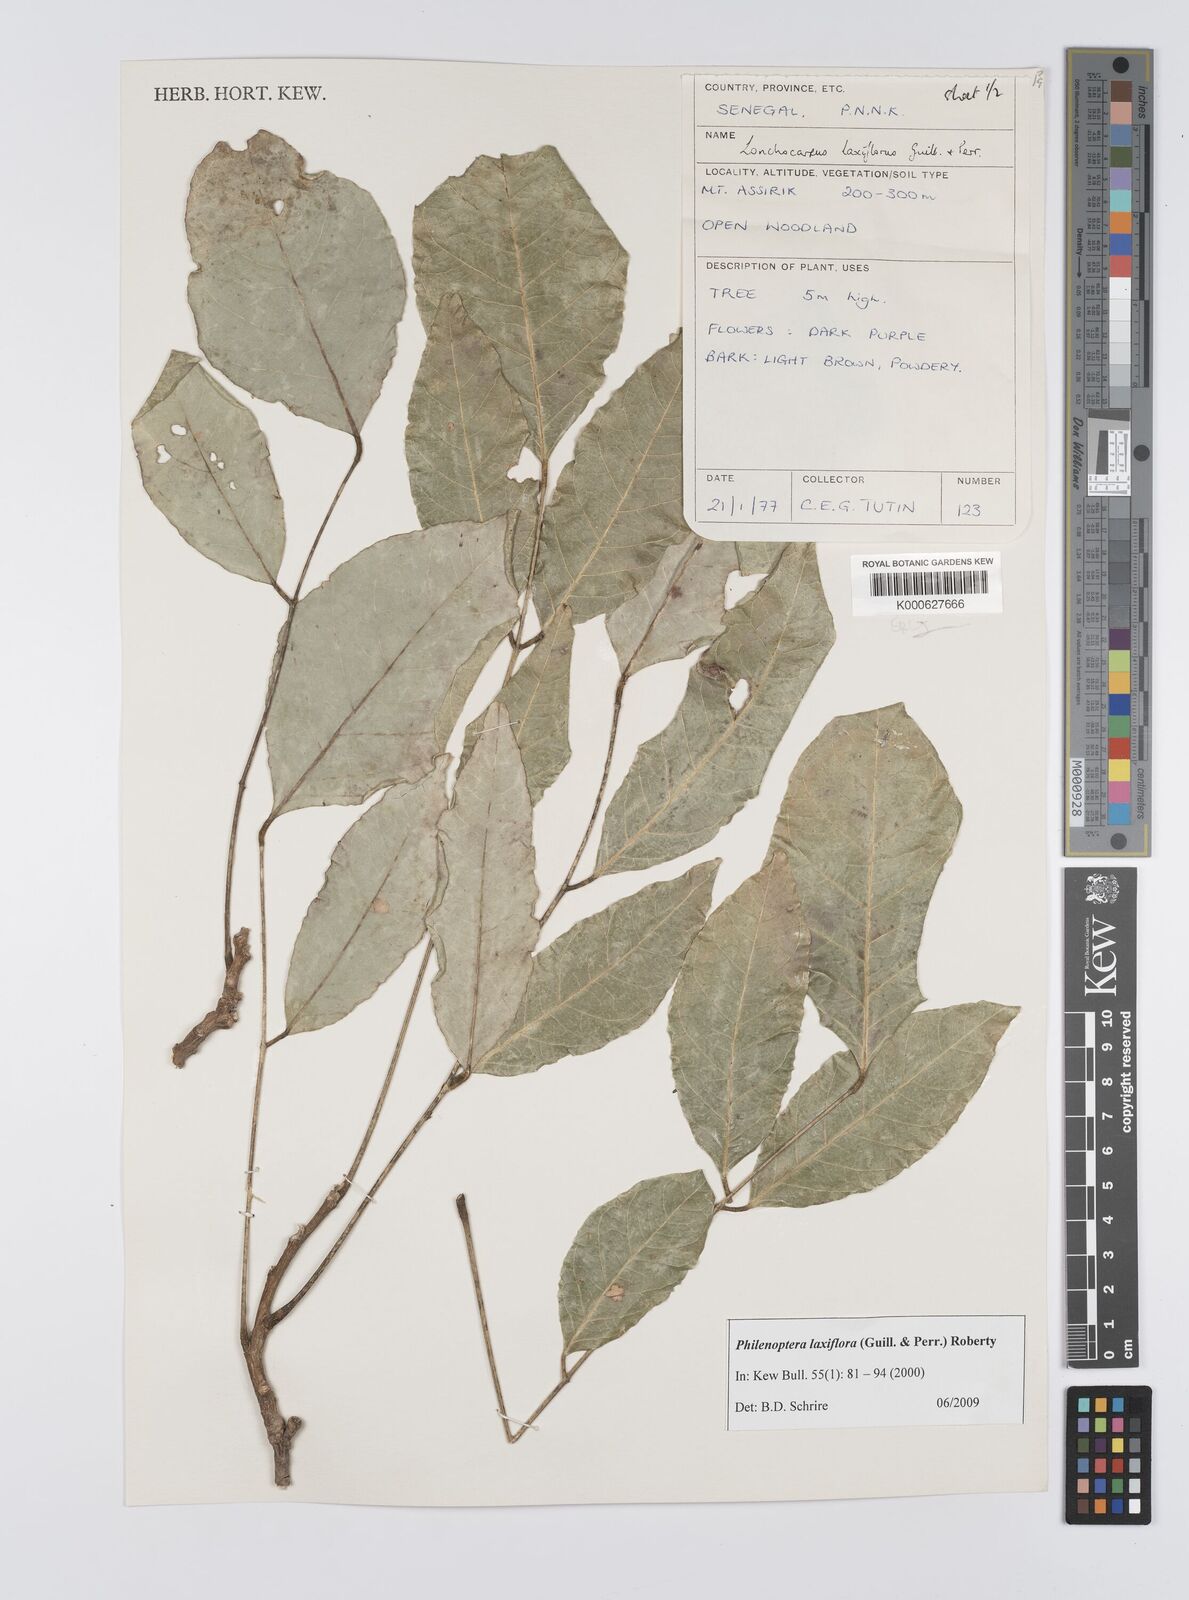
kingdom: Plantae
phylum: Tracheophyta
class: Magnoliopsida
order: Fabales
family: Fabaceae
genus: Philenoptera
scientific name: Philenoptera laxiflora
